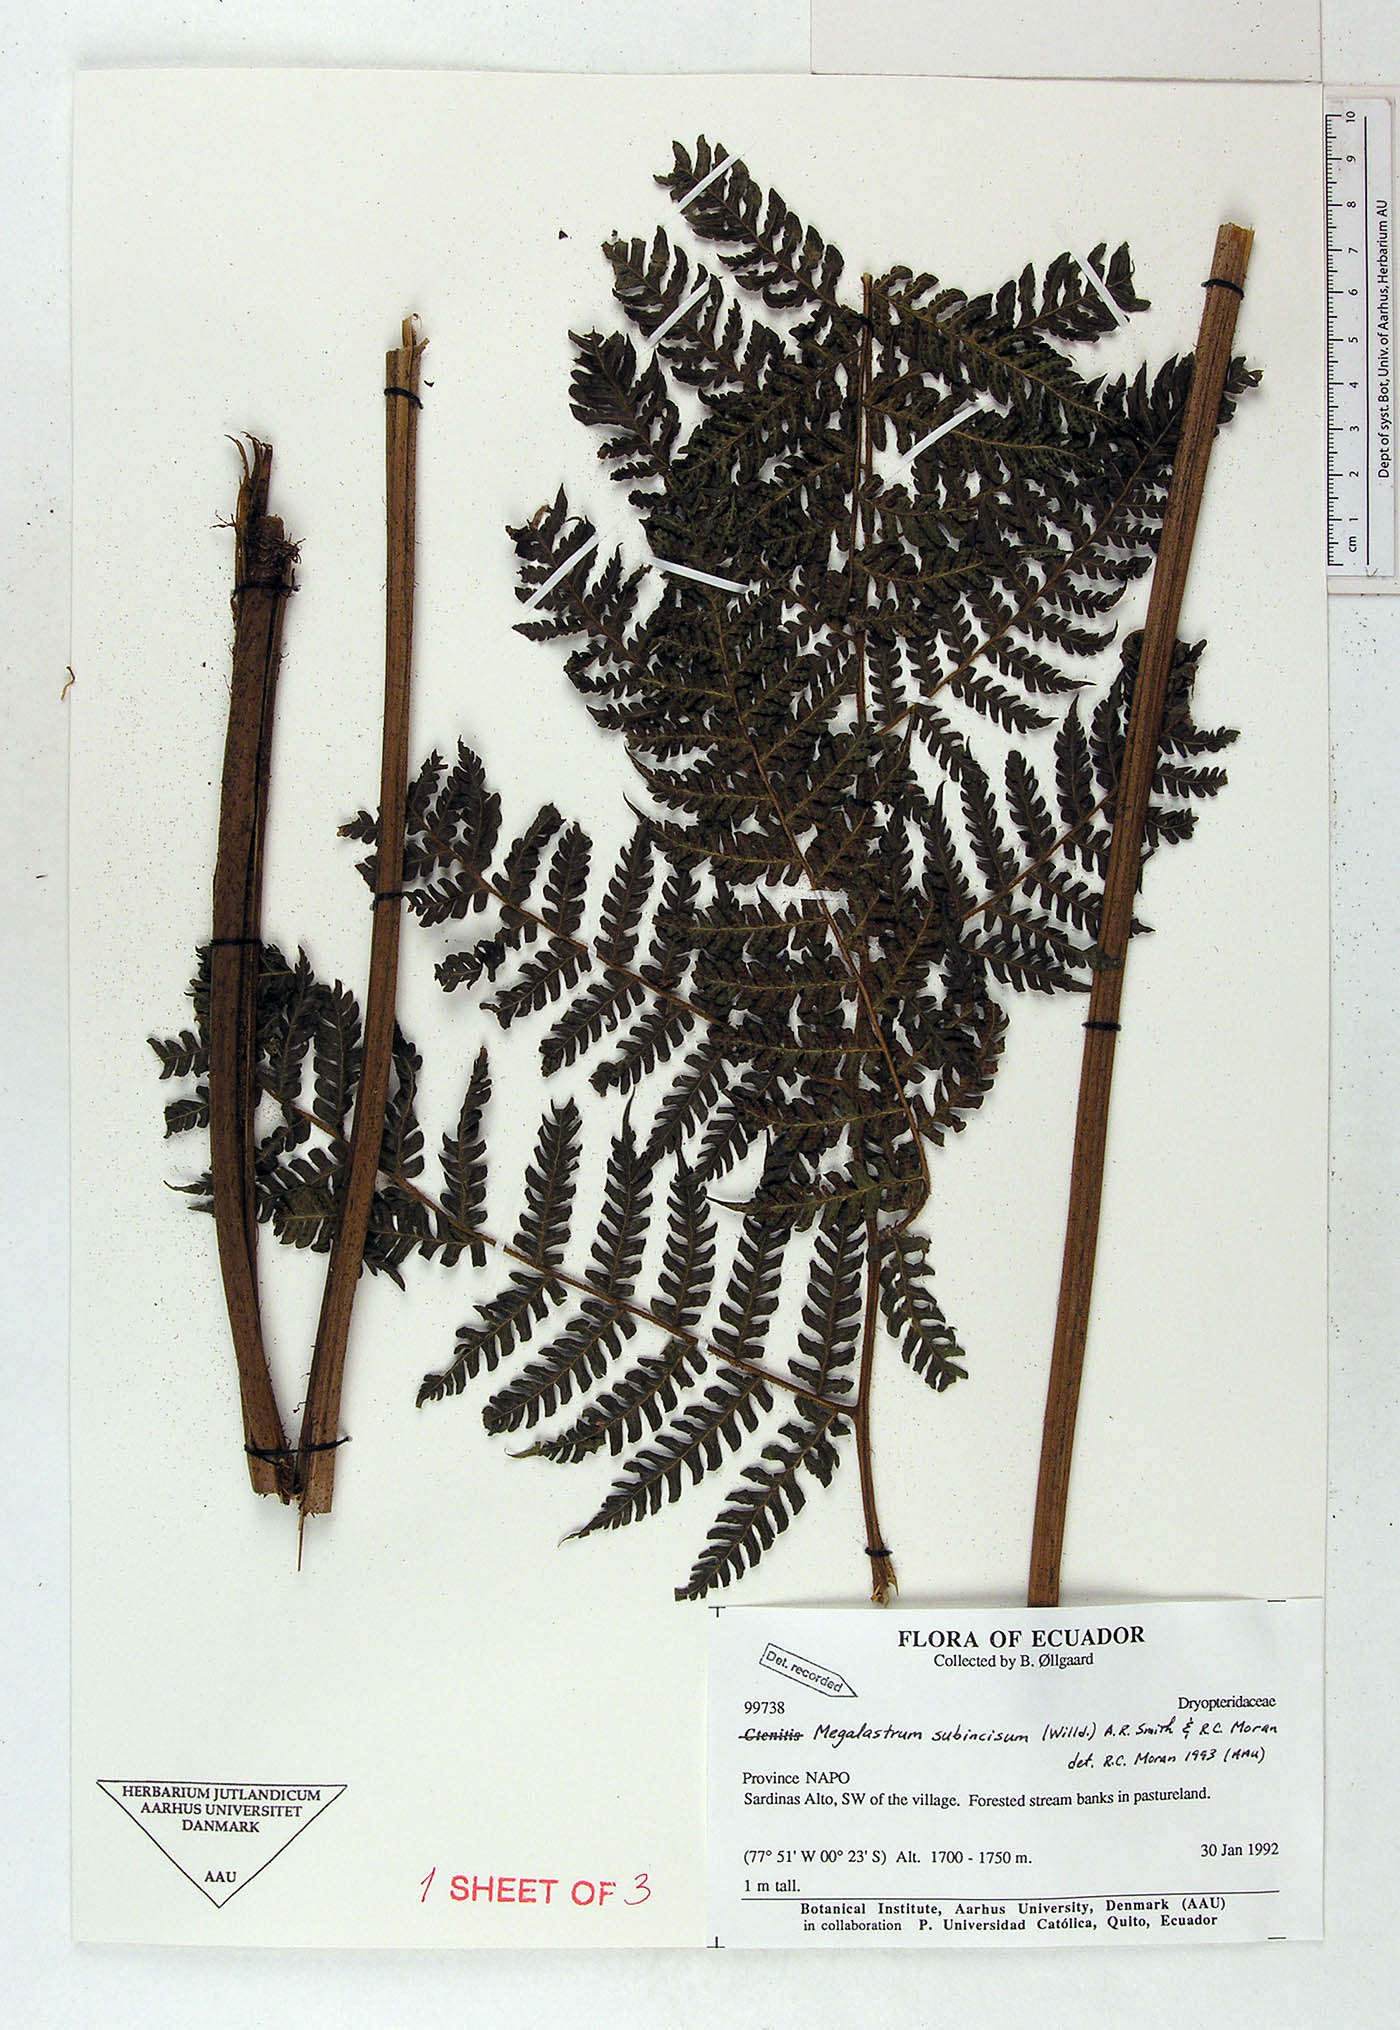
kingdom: Plantae
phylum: Tracheophyta
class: Polypodiopsida
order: Polypodiales
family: Dryopteridaceae
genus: Megalastrum
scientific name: Megalastrum pubirhachis
